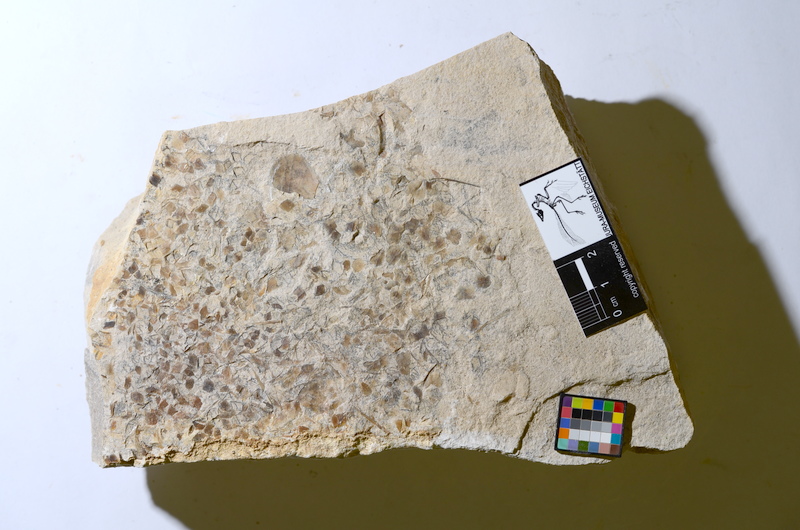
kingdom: Animalia
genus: Piscis
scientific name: Piscis
